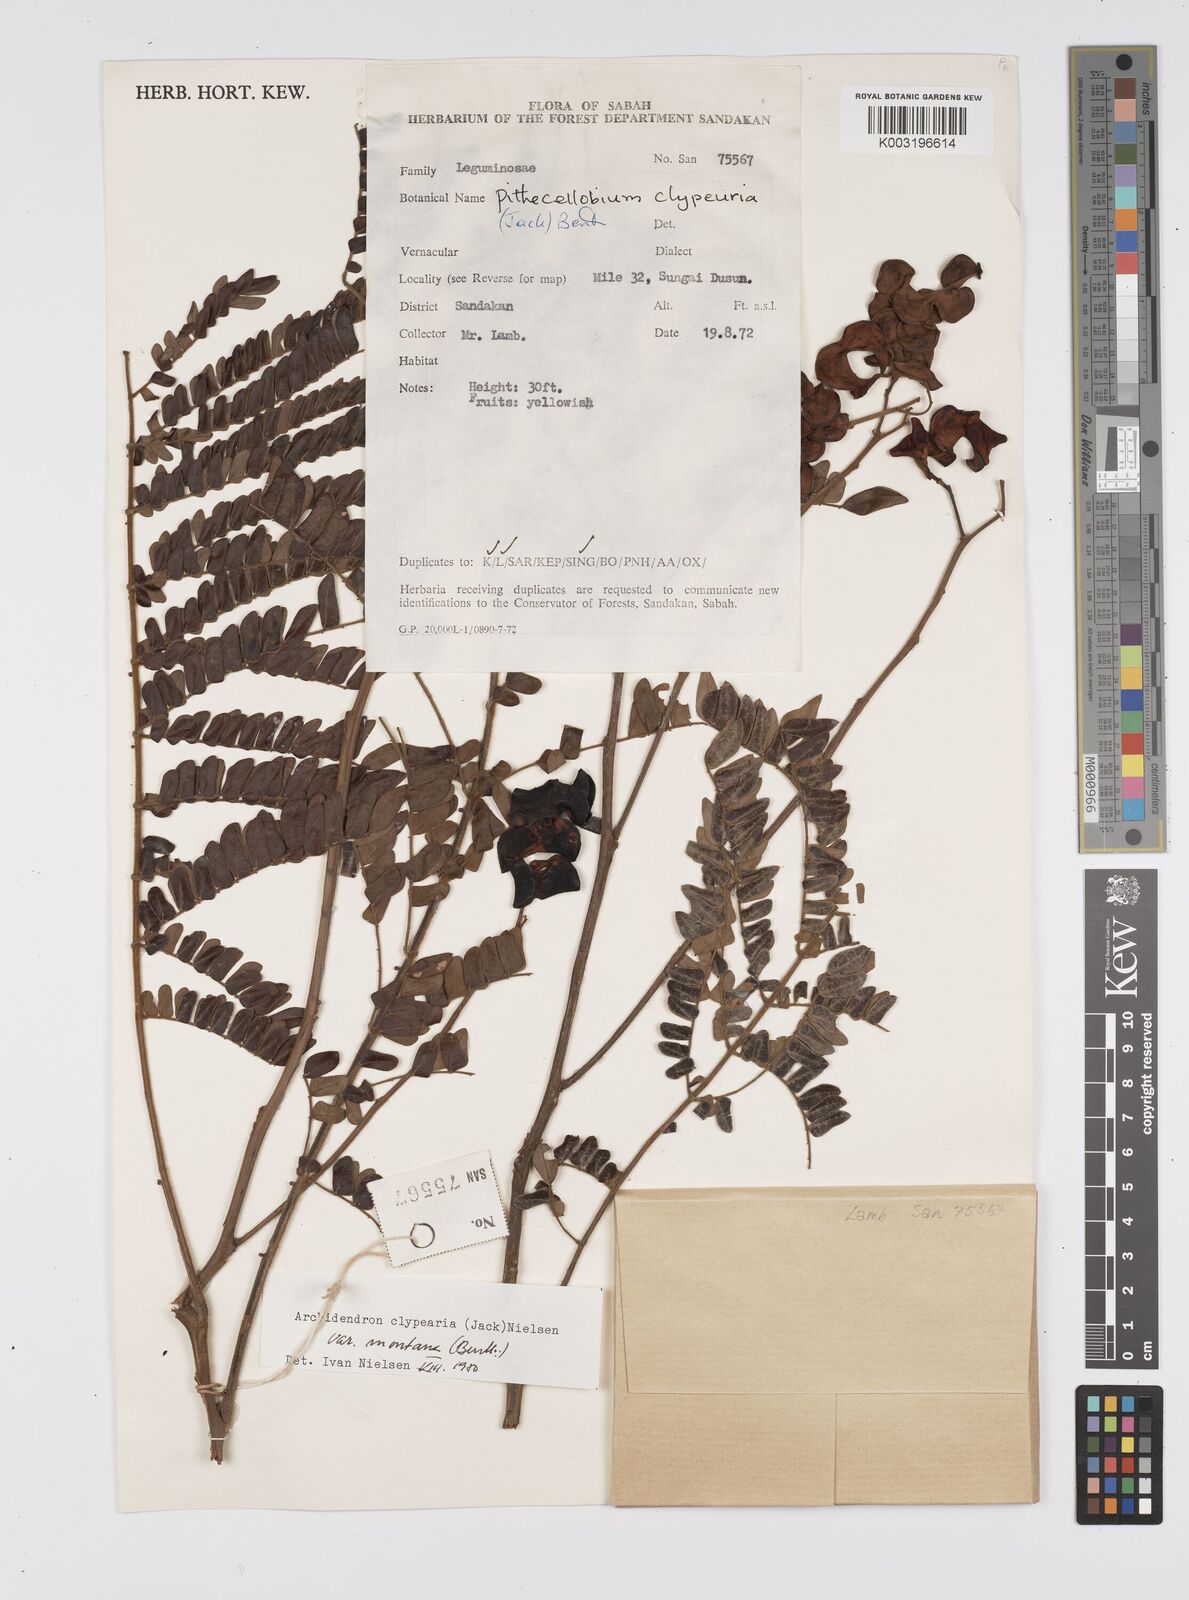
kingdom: Plantae
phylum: Tracheophyta
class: Magnoliopsida
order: Fabales
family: Fabaceae
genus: Archidendron
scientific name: Archidendron clypearia
